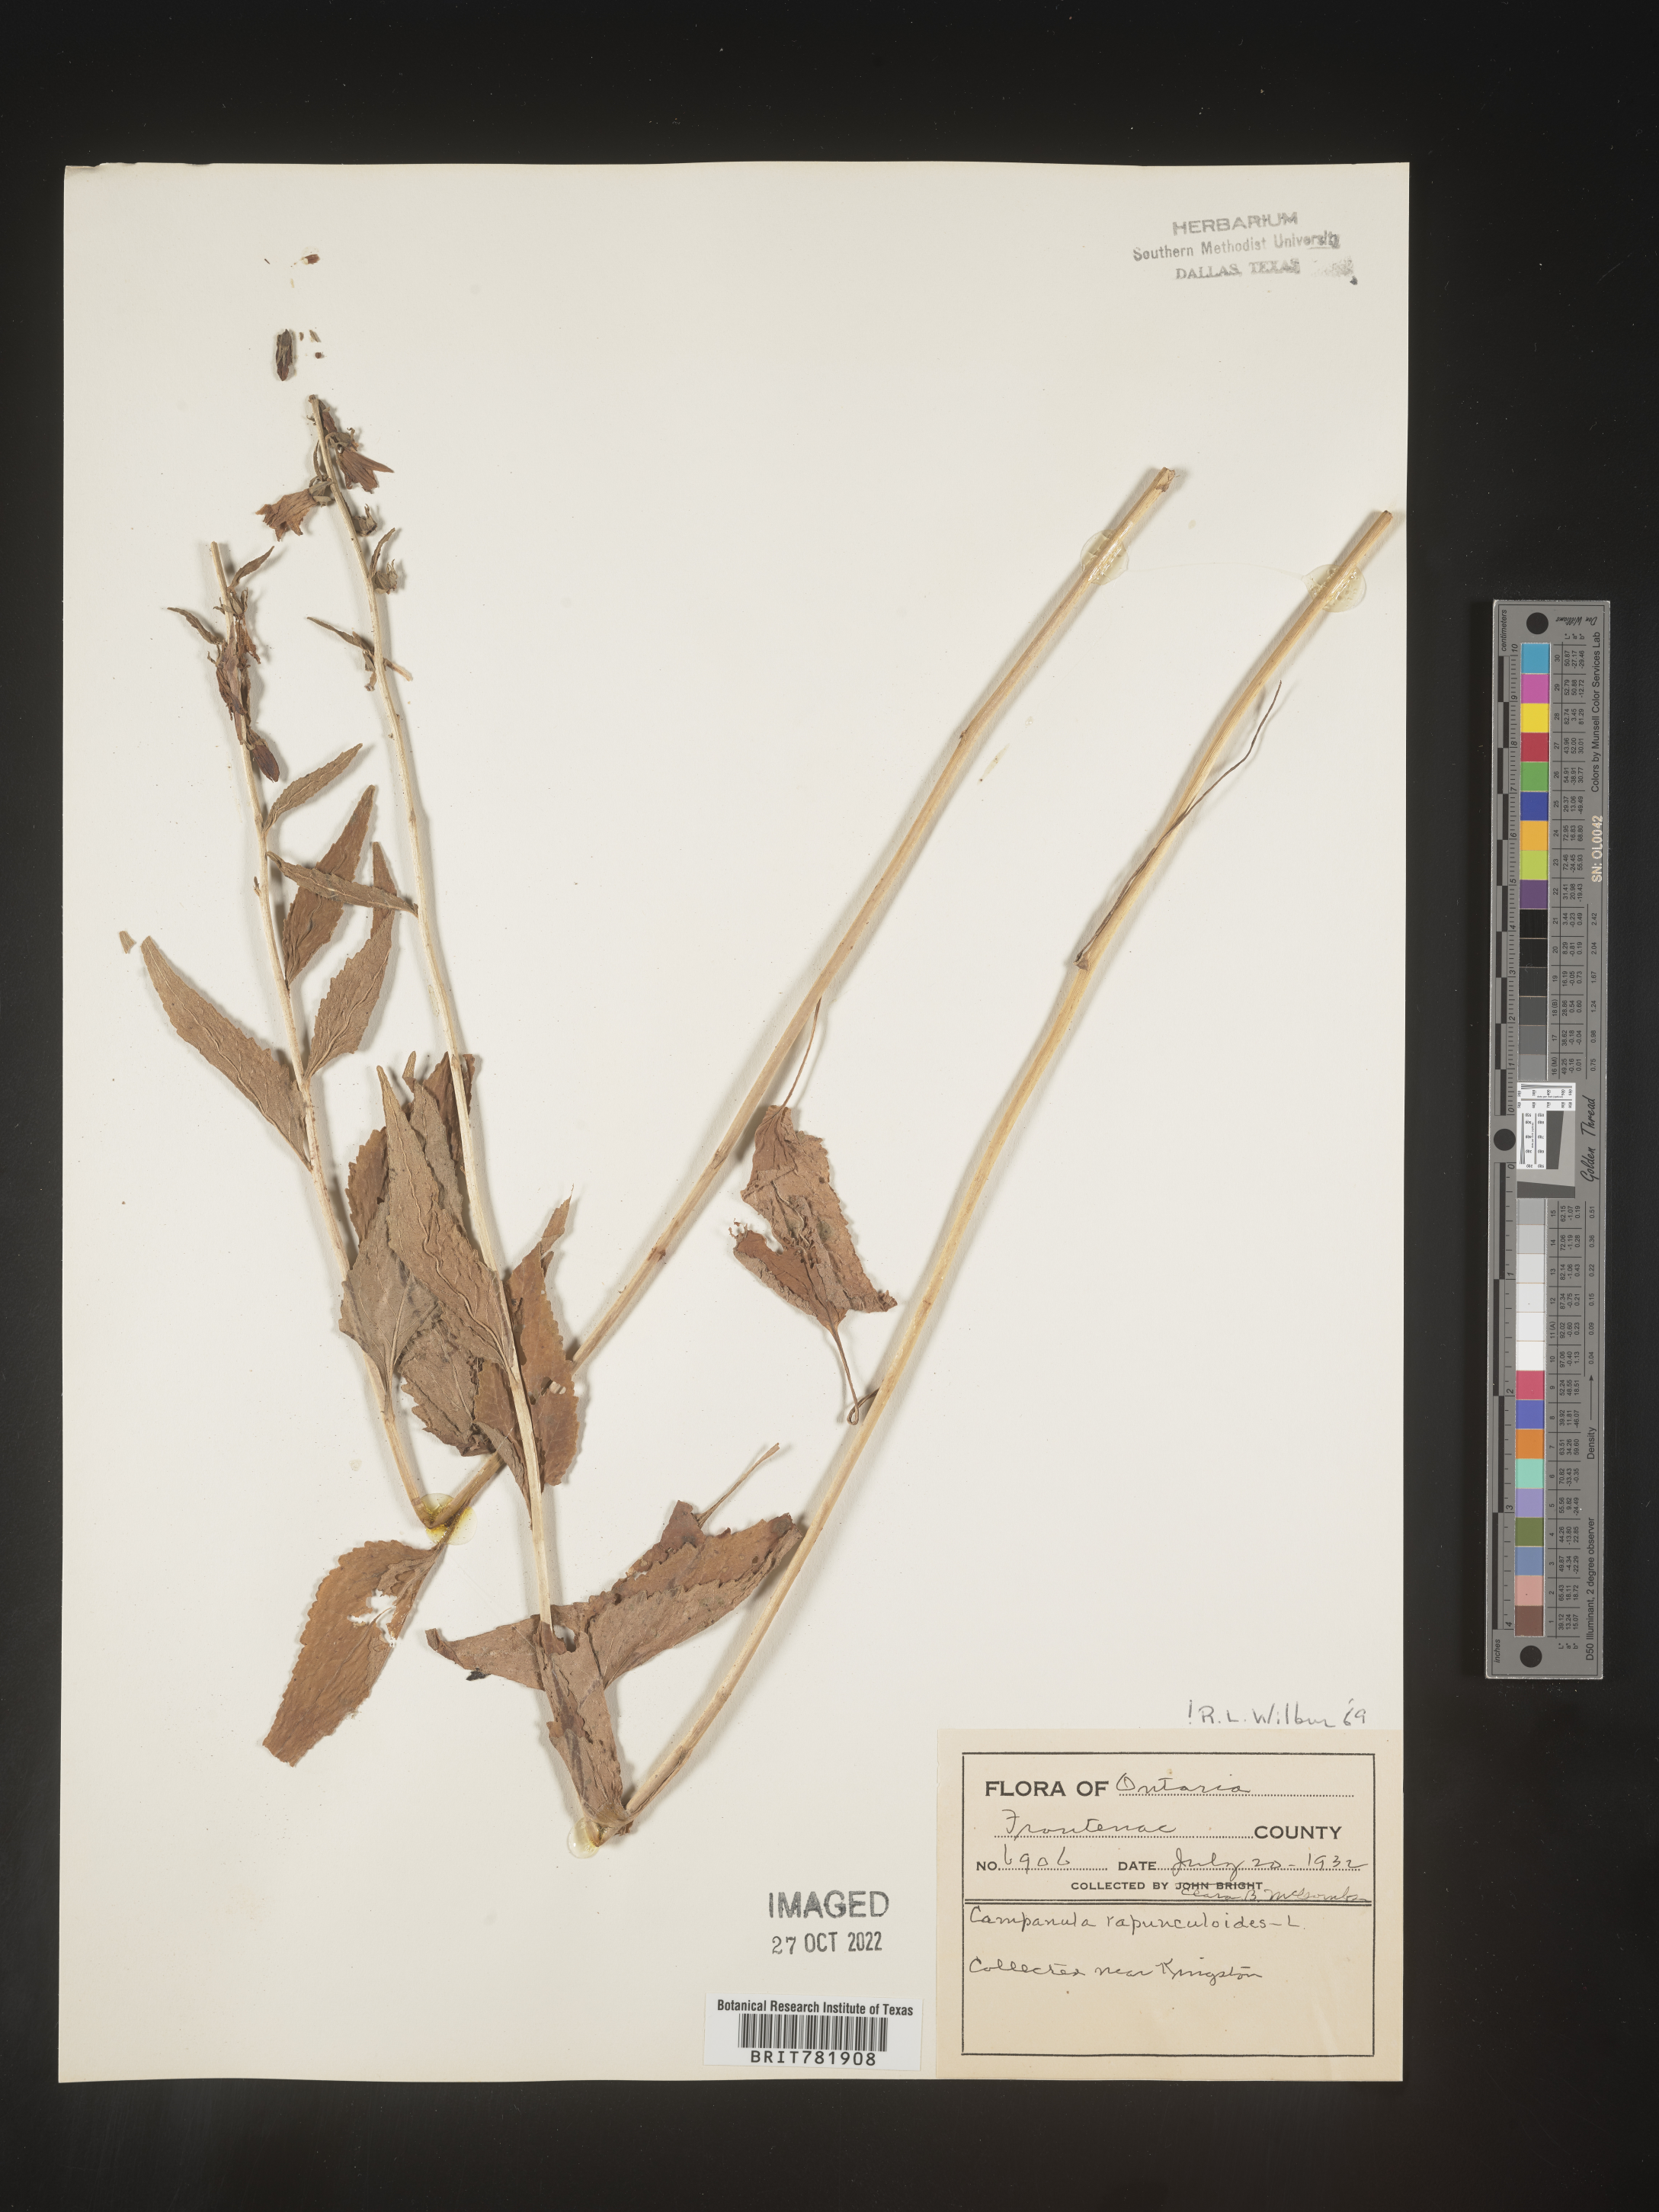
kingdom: Plantae
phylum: Tracheophyta
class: Magnoliopsida
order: Asterales
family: Campanulaceae
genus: Campanula
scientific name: Campanula
